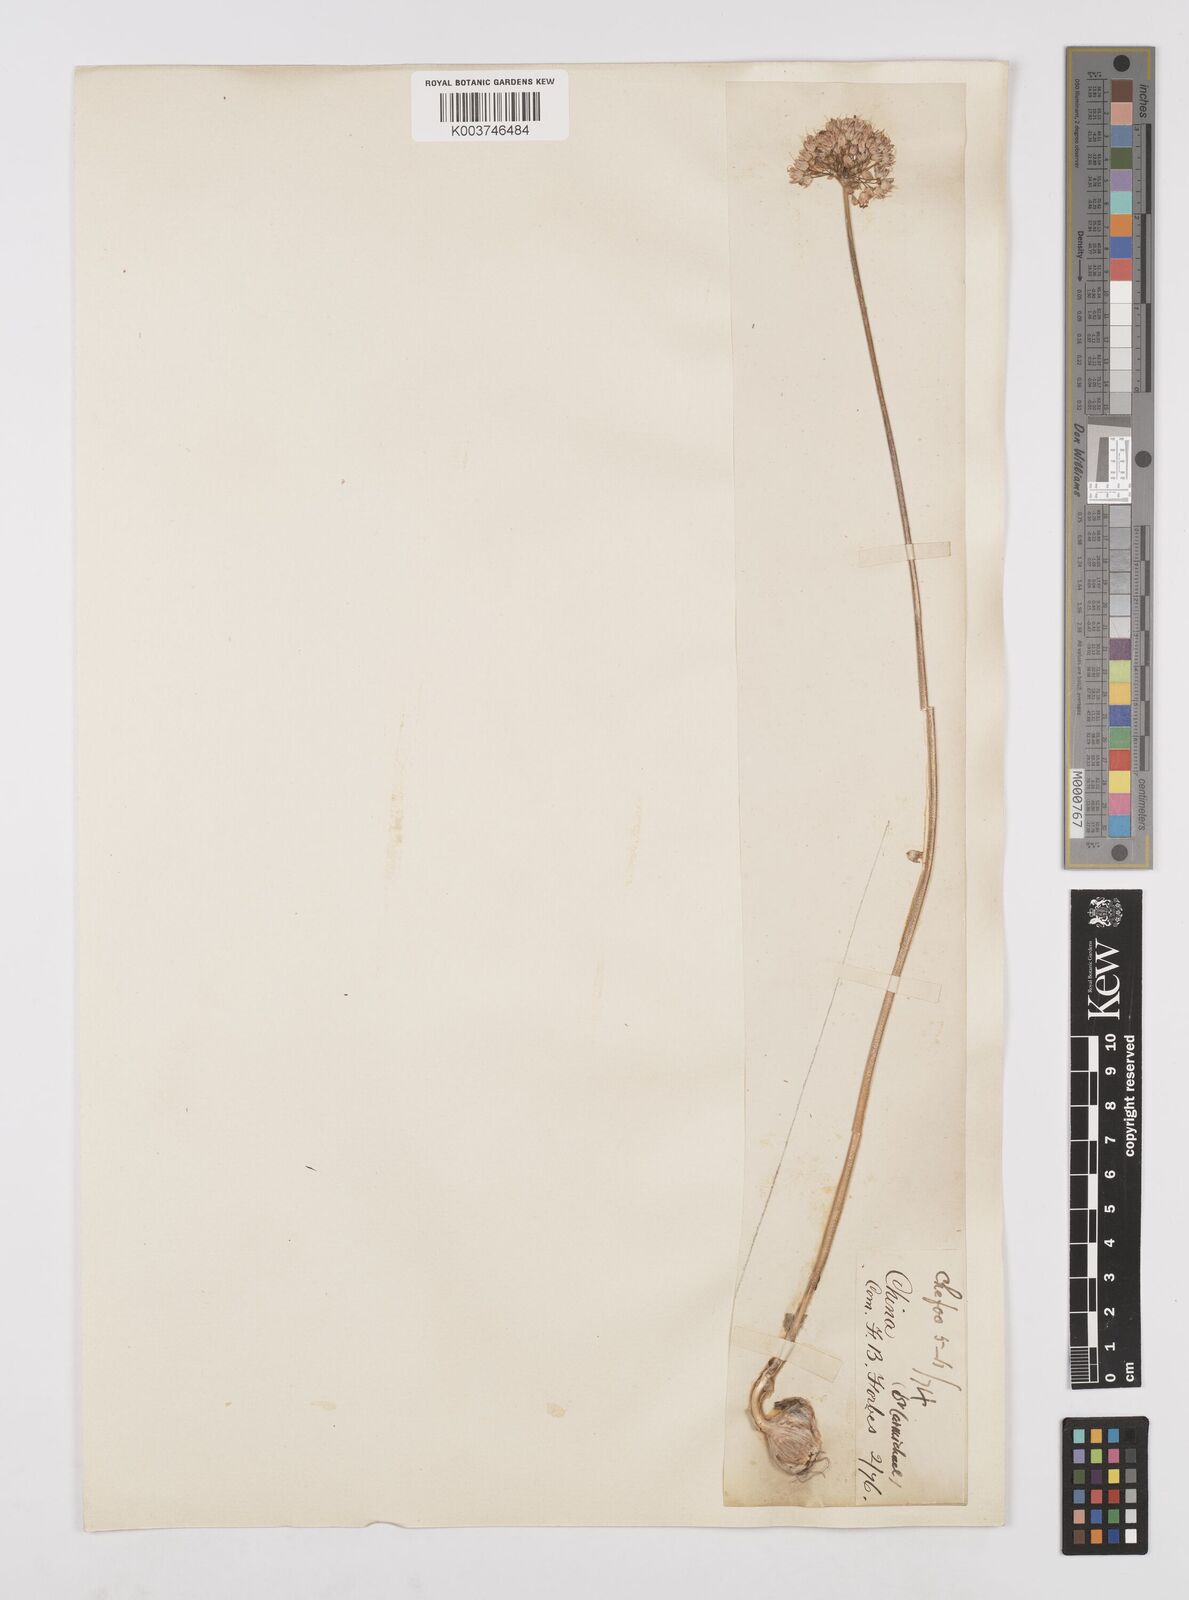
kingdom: Plantae
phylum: Tracheophyta
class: Liliopsida
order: Asparagales
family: Amaryllidaceae
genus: Allium
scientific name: Allium macrostemon
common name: Chinese garlic
